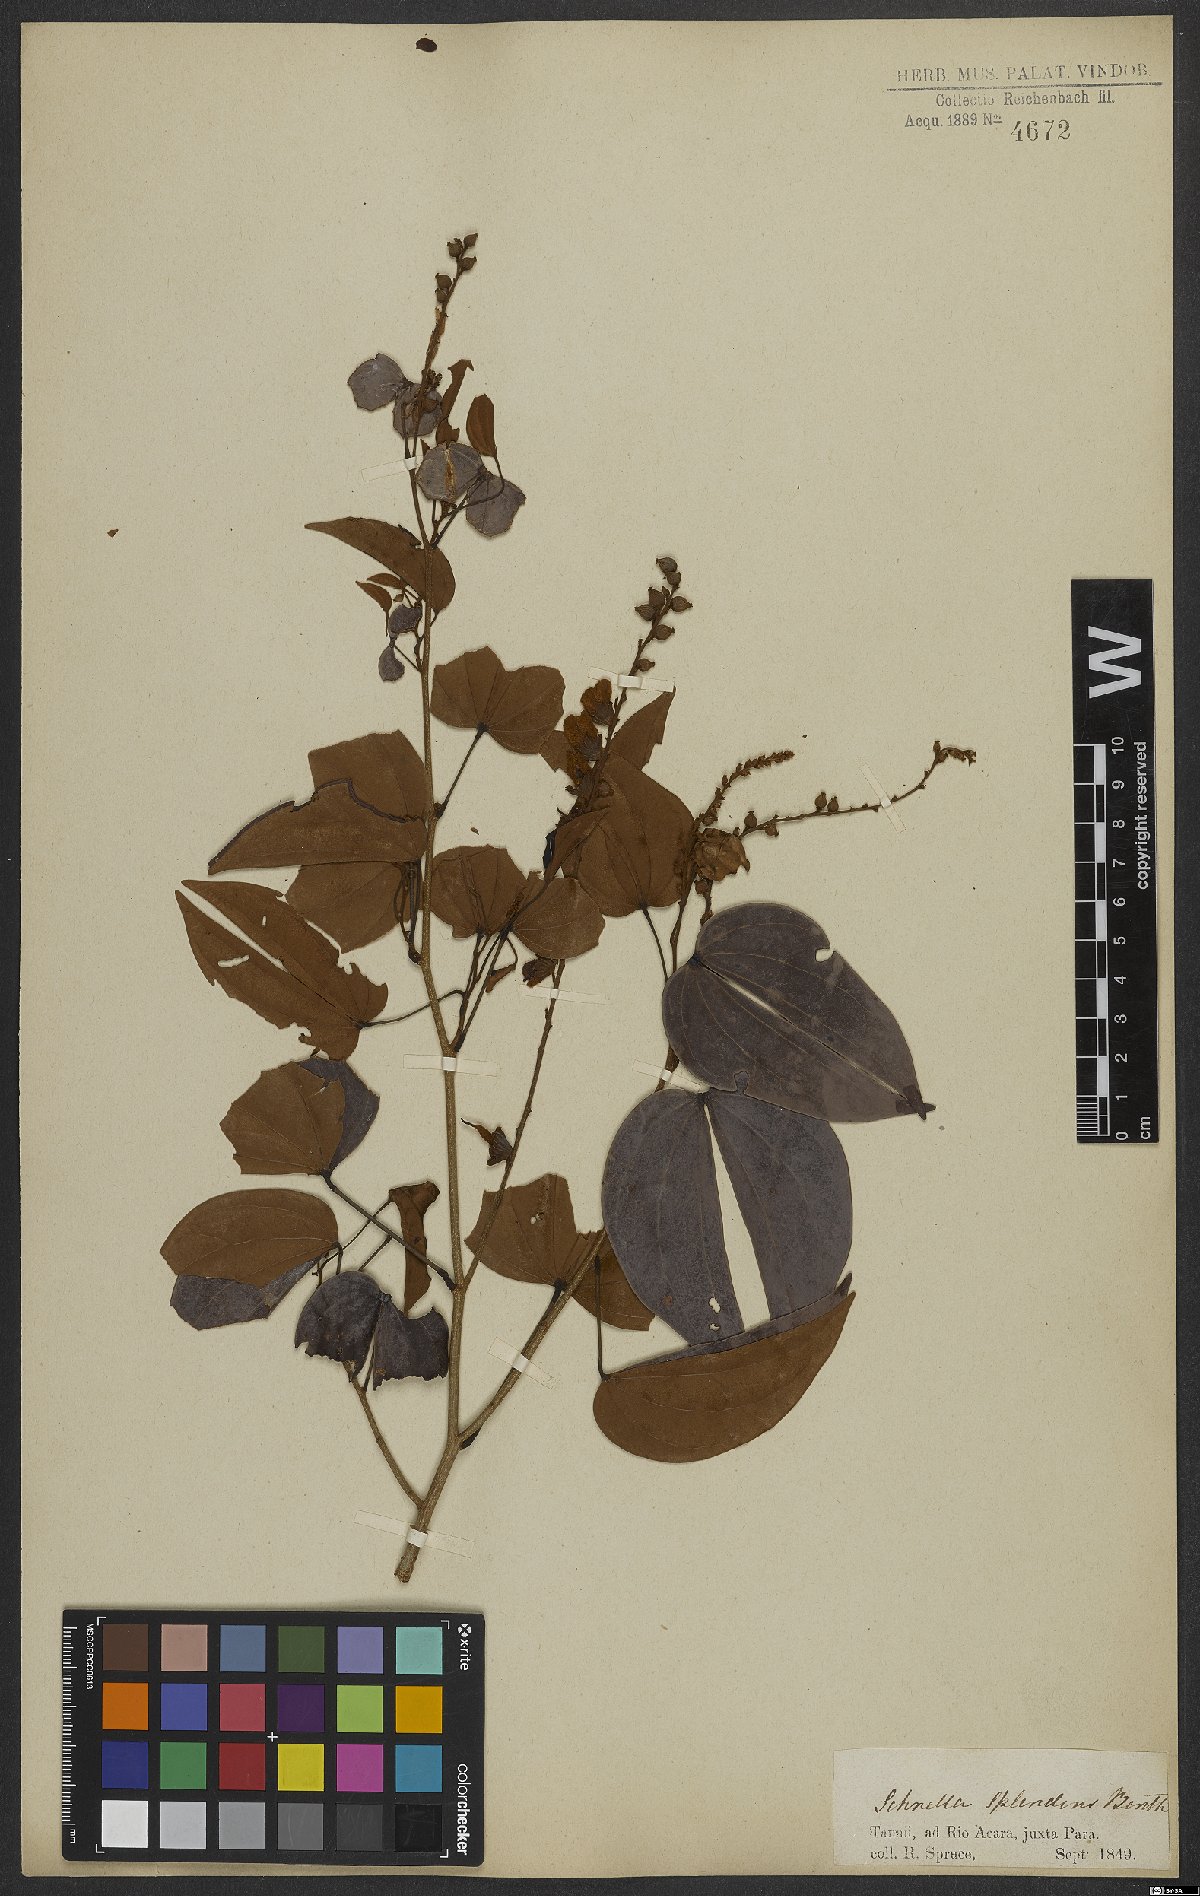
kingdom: Plantae
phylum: Tracheophyta
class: Magnoliopsida
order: Fabales
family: Fabaceae
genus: Schnella
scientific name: Schnella splendens
